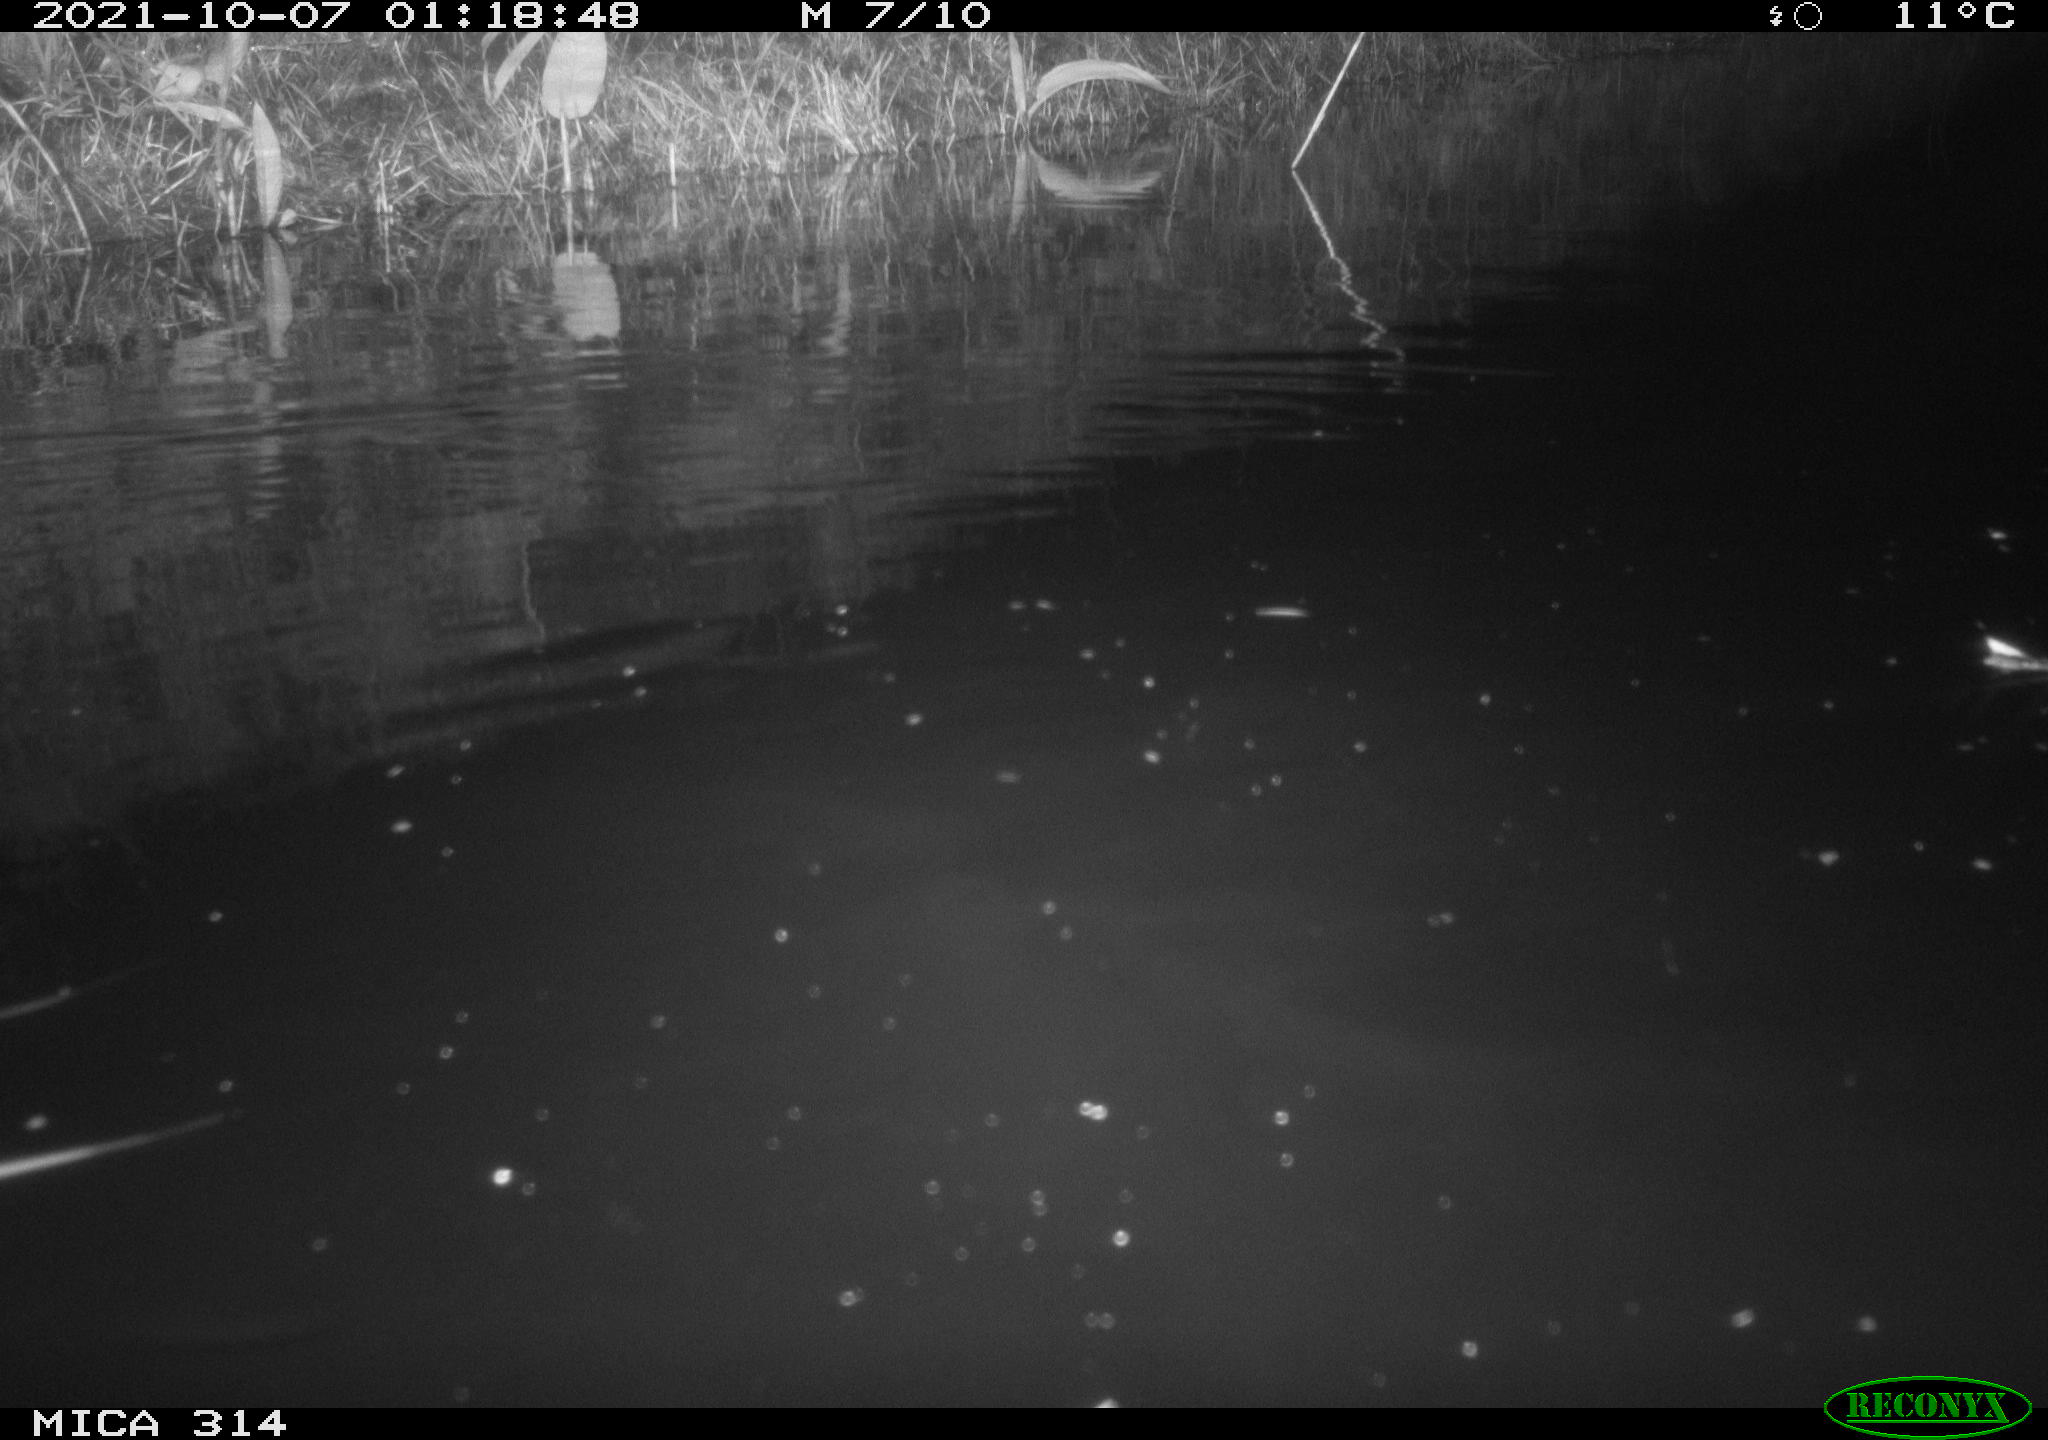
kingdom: Animalia
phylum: Chordata
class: Mammalia
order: Rodentia
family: Muridae
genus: Rattus
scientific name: Rattus norvegicus
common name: Brown rat
